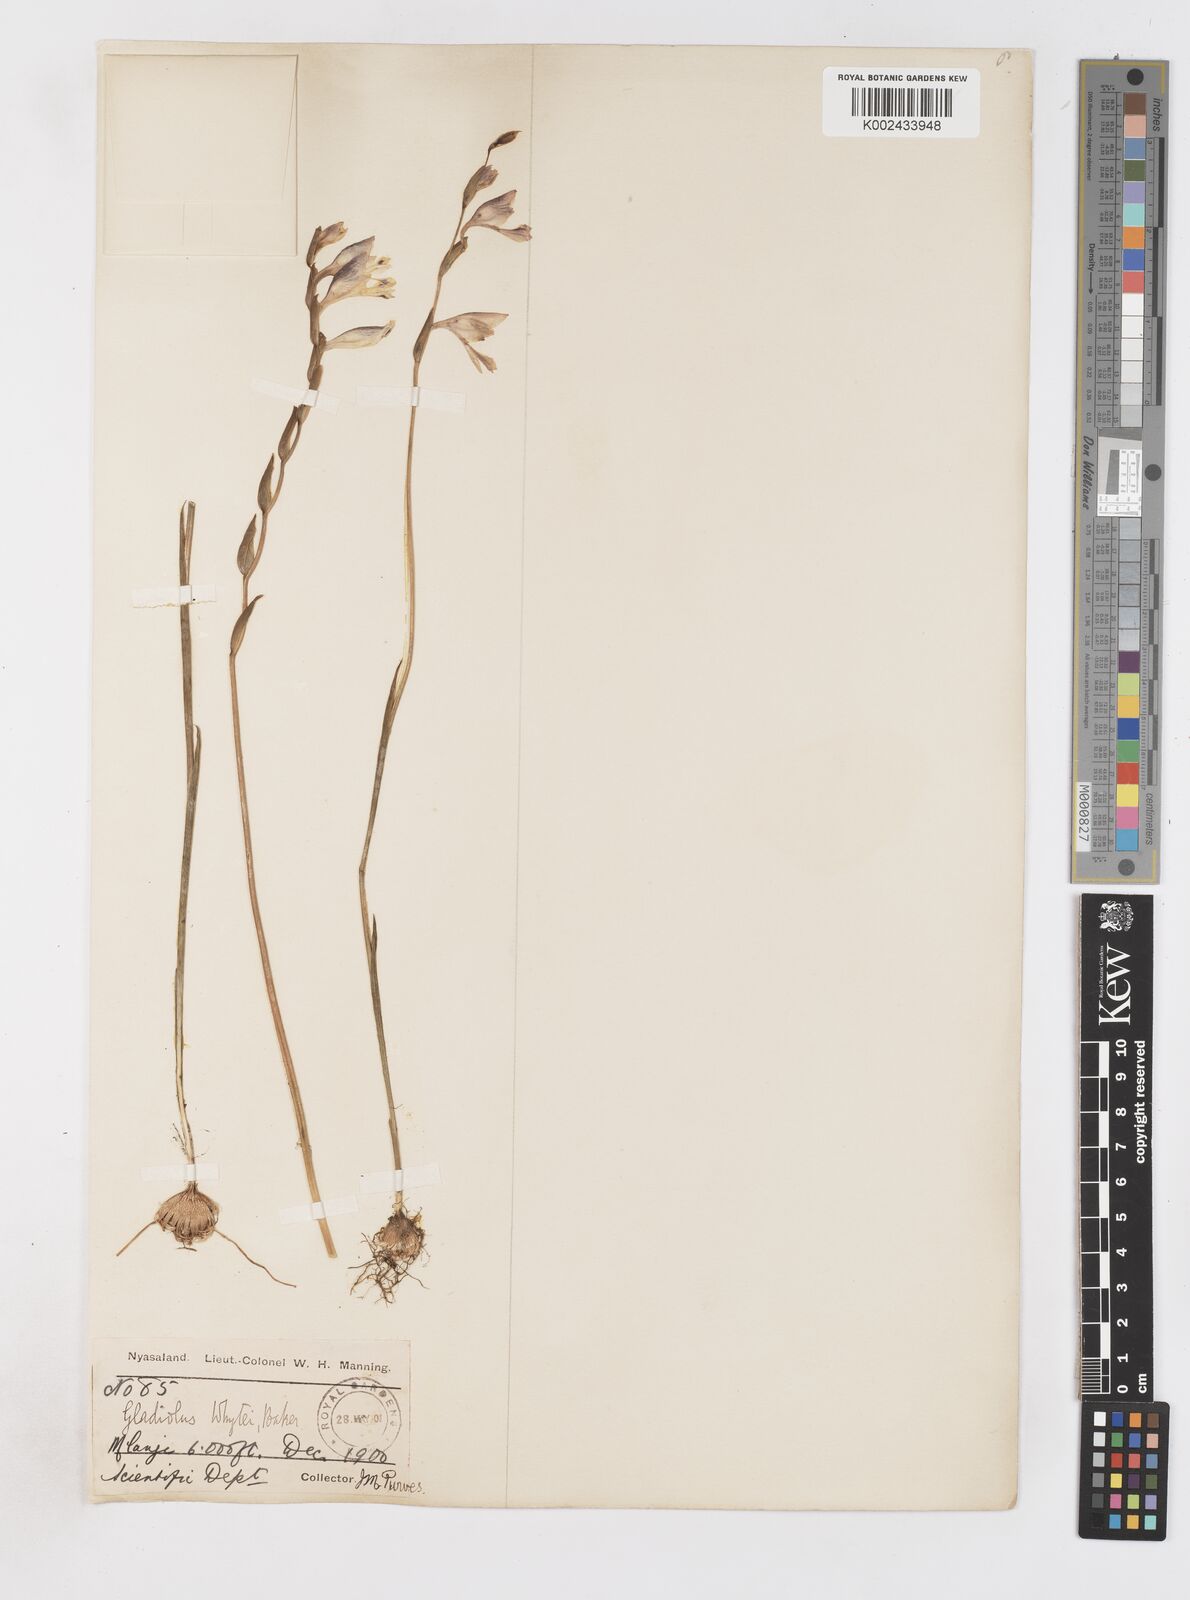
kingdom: Plantae
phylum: Tracheophyta
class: Liliopsida
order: Asparagales
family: Iridaceae
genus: Gladiolus
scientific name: Gladiolus atropurpureus
